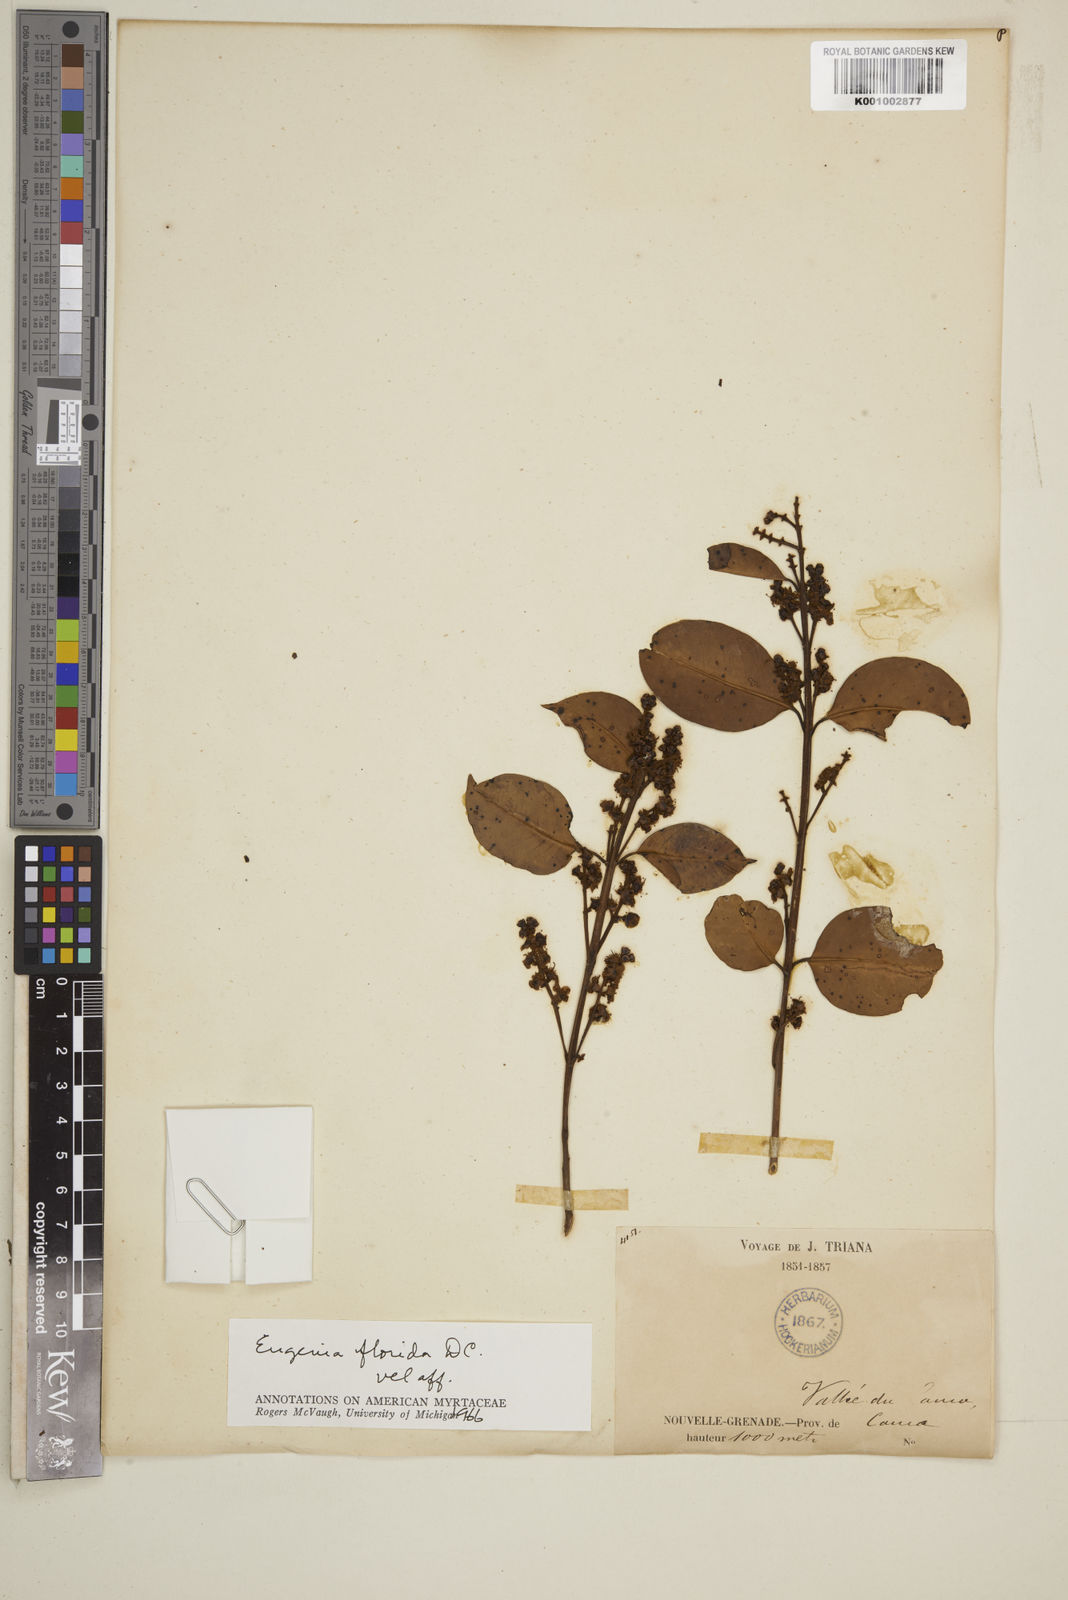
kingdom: Plantae
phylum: Tracheophyta
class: Magnoliopsida
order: Myrtales
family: Myrtaceae
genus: Eugenia
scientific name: Eugenia florida
